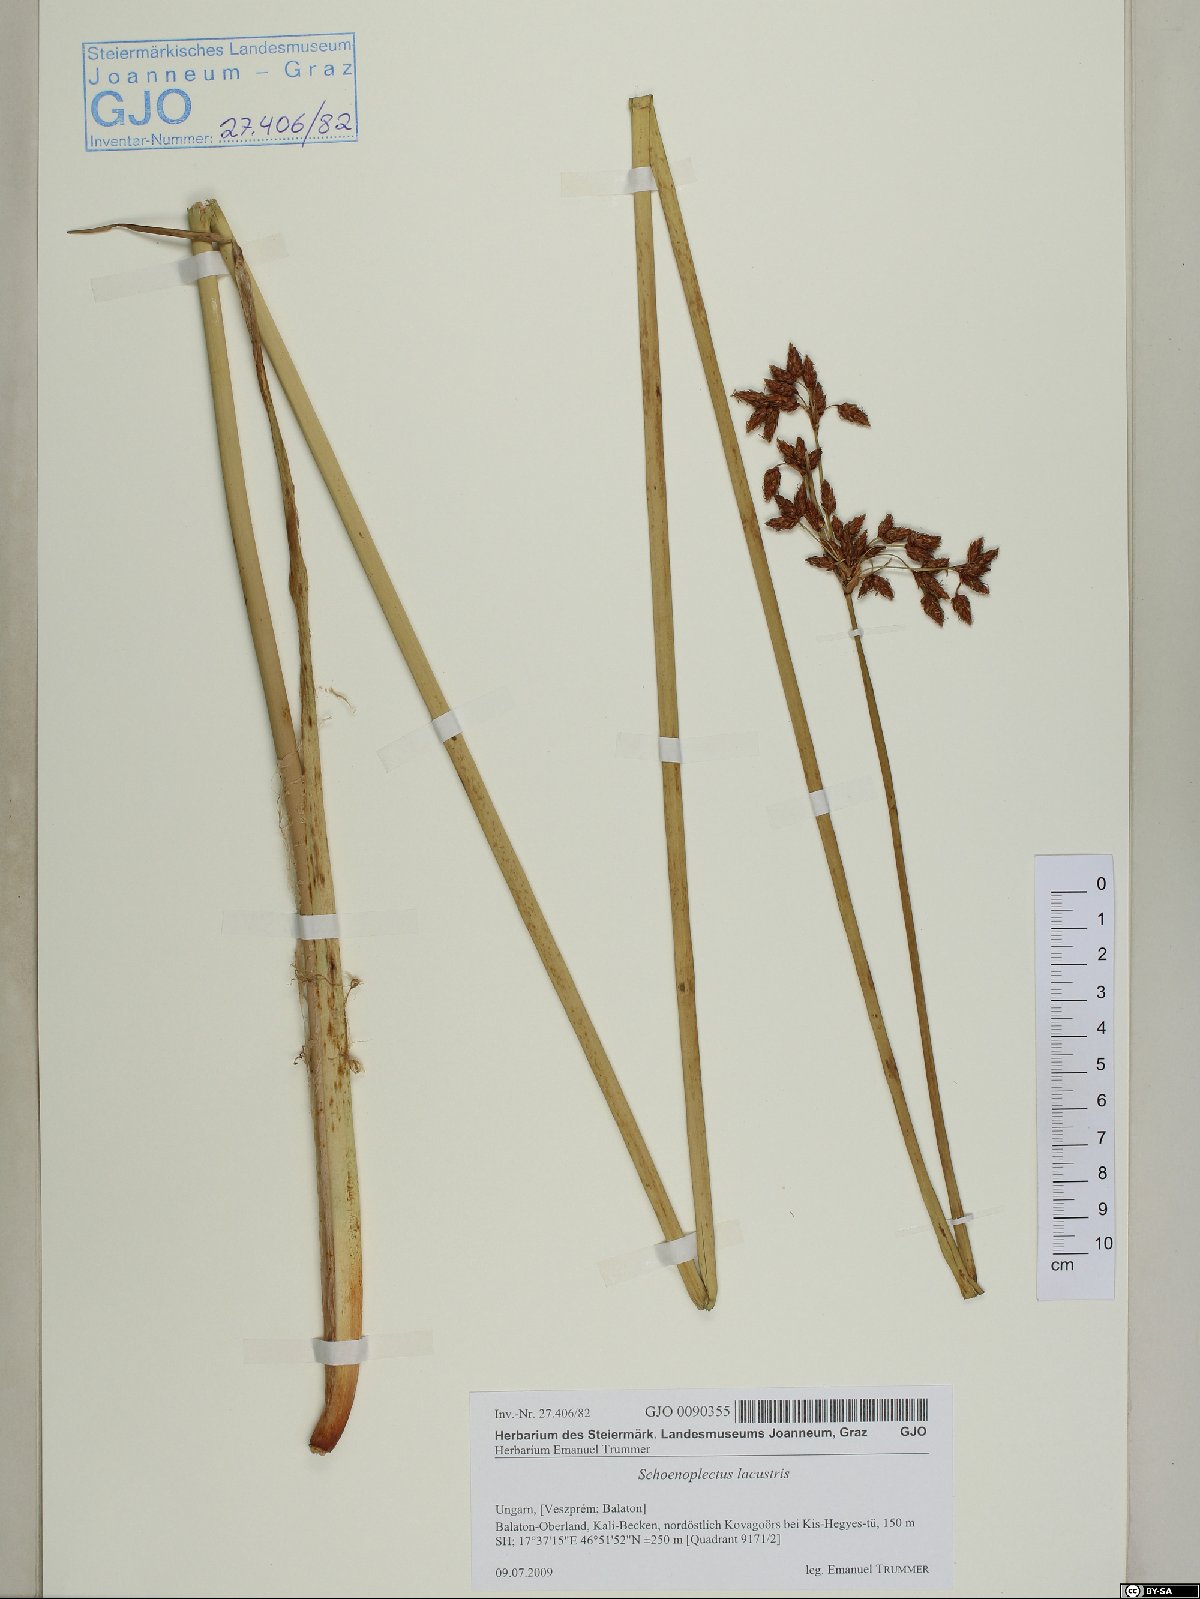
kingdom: Plantae
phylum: Tracheophyta
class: Liliopsida
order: Poales
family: Cyperaceae
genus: Schoenoplectus
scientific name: Schoenoplectus lacustris
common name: Common club-rush
